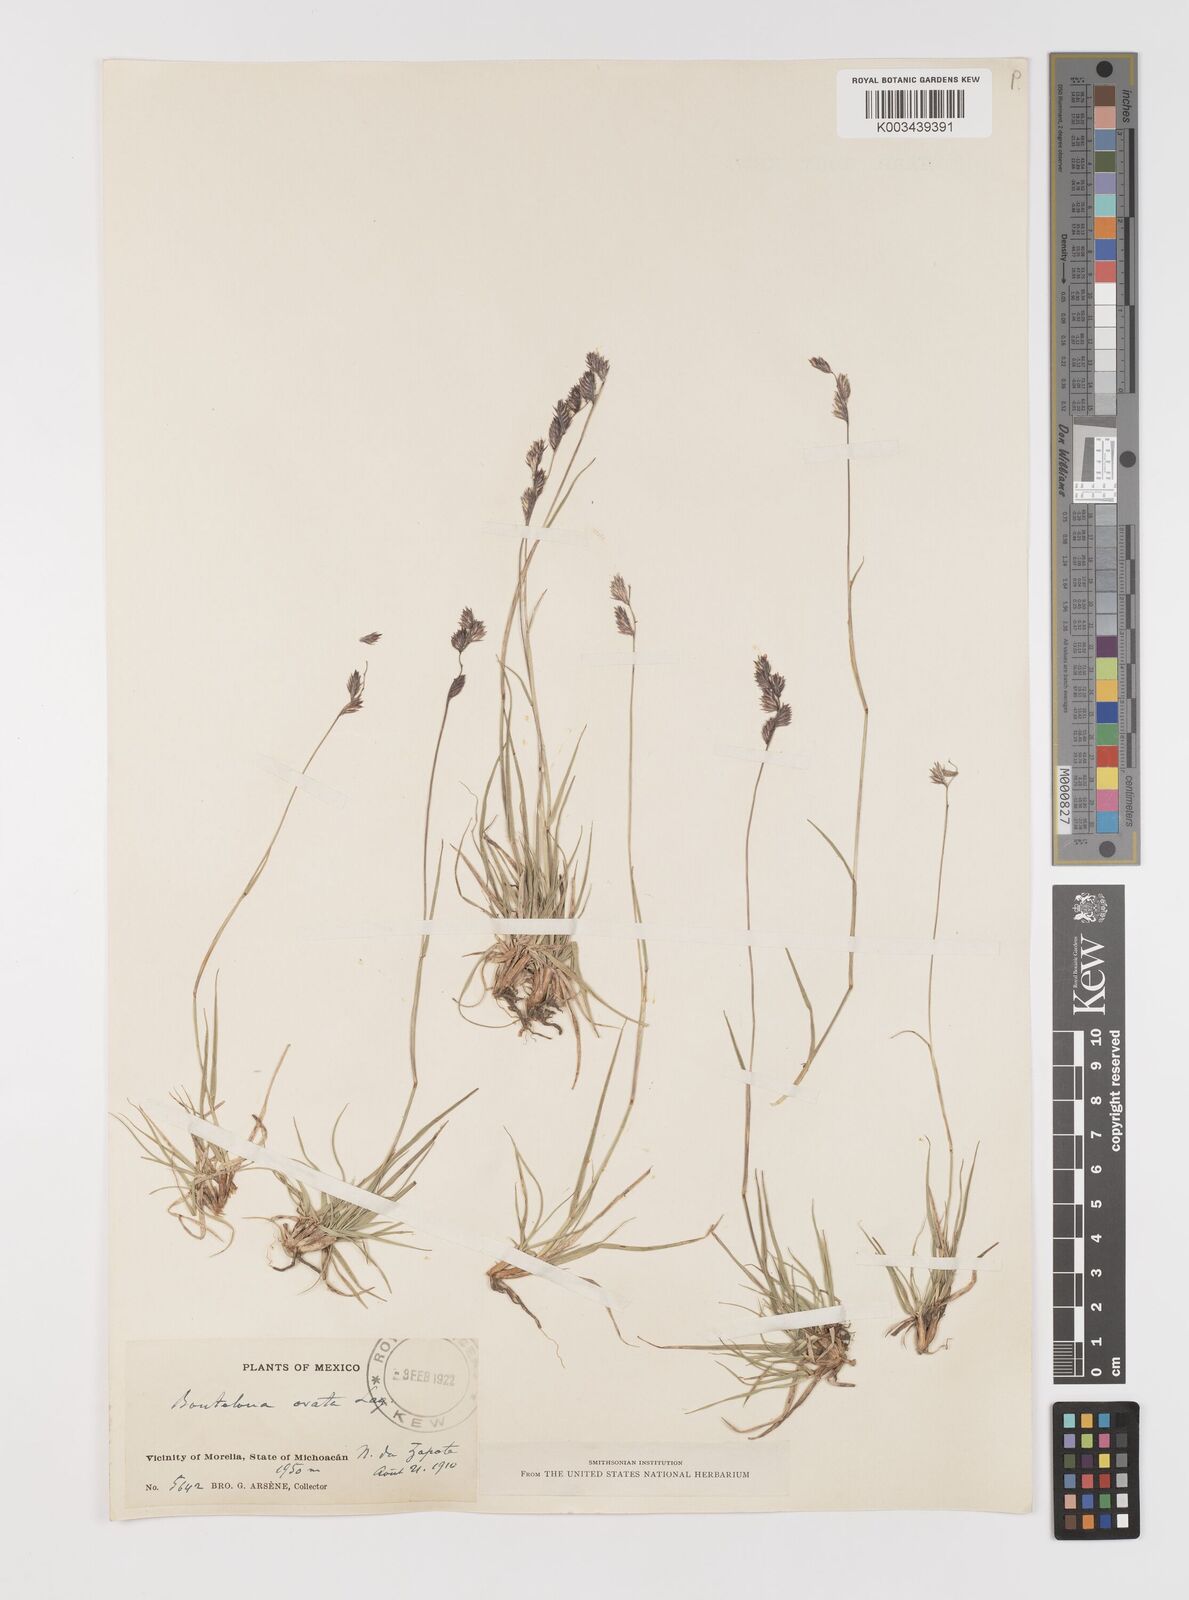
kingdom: Plantae
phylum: Tracheophyta
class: Liliopsida
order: Poales
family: Poaceae
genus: Bouteloua
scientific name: Bouteloua chondrosioides
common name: Sprucetop grama
